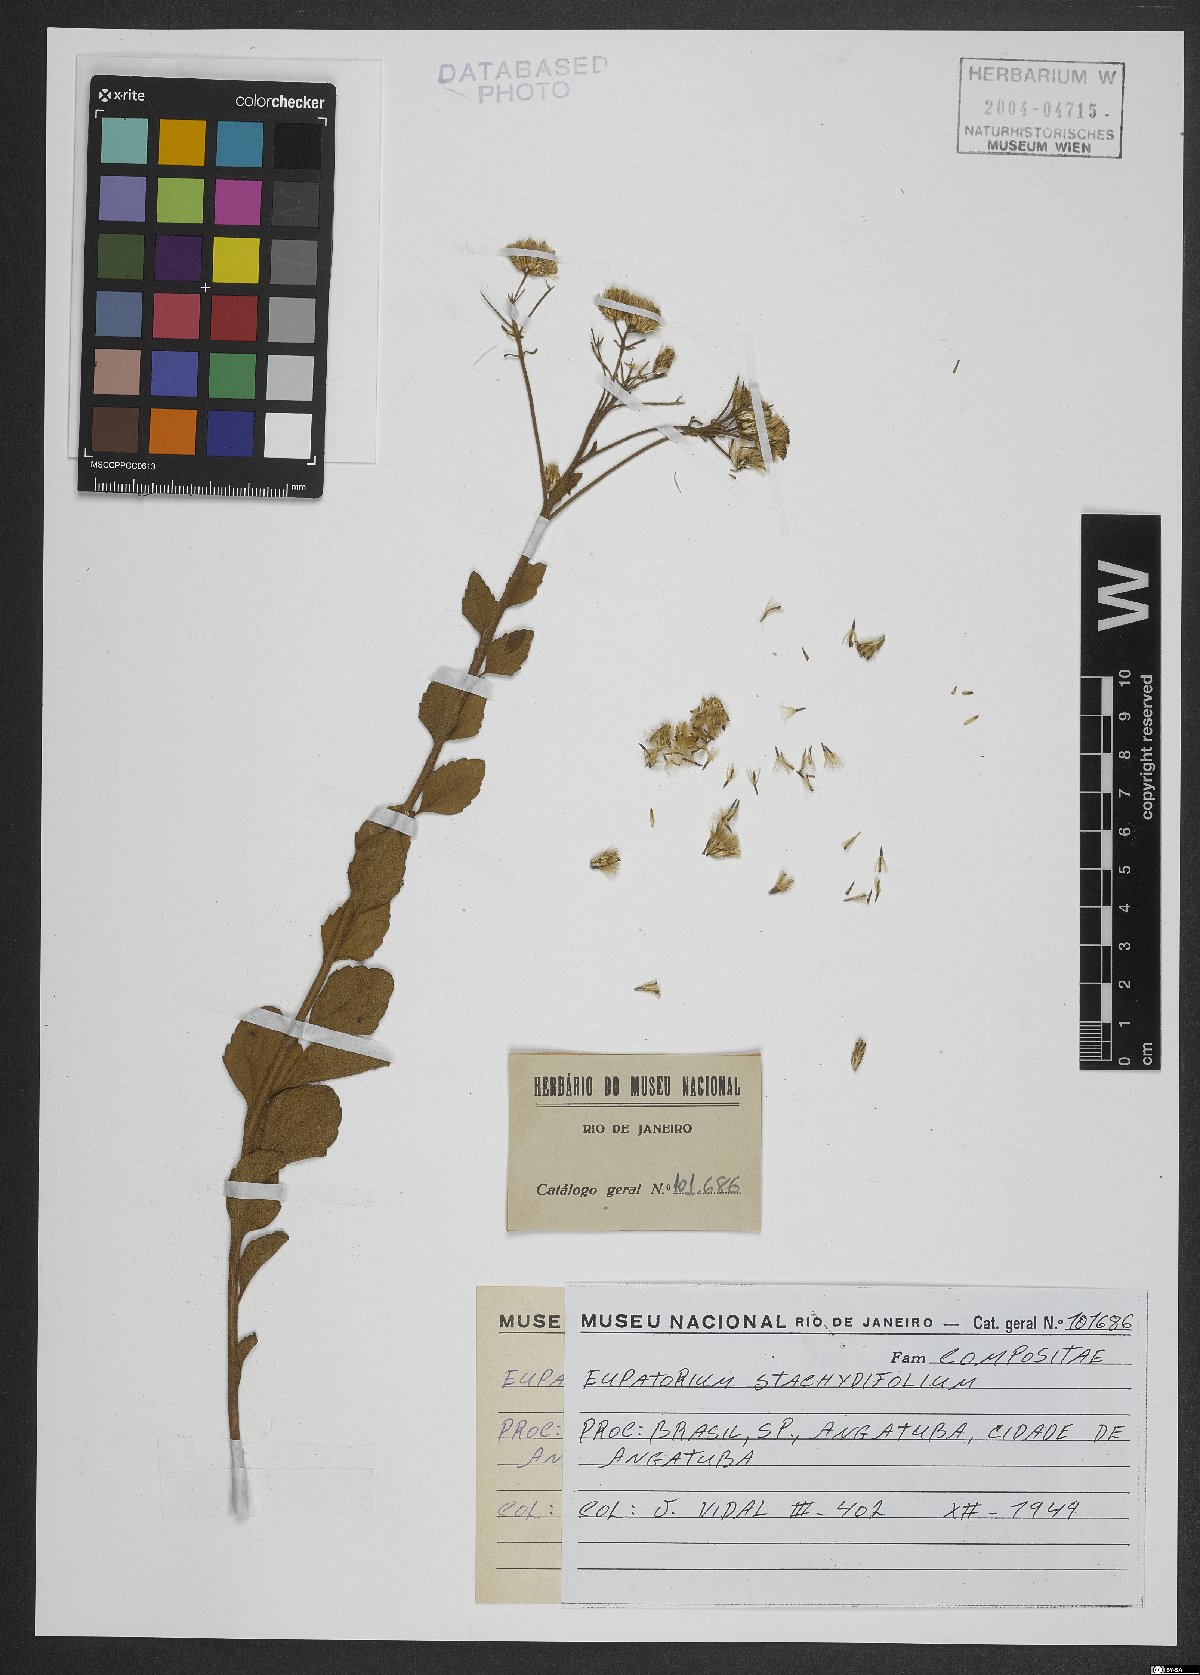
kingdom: Plantae
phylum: Tracheophyta
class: Magnoliopsida
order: Asterales
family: Asteraceae
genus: Chromolaena
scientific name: Chromolaena stachyophylla
